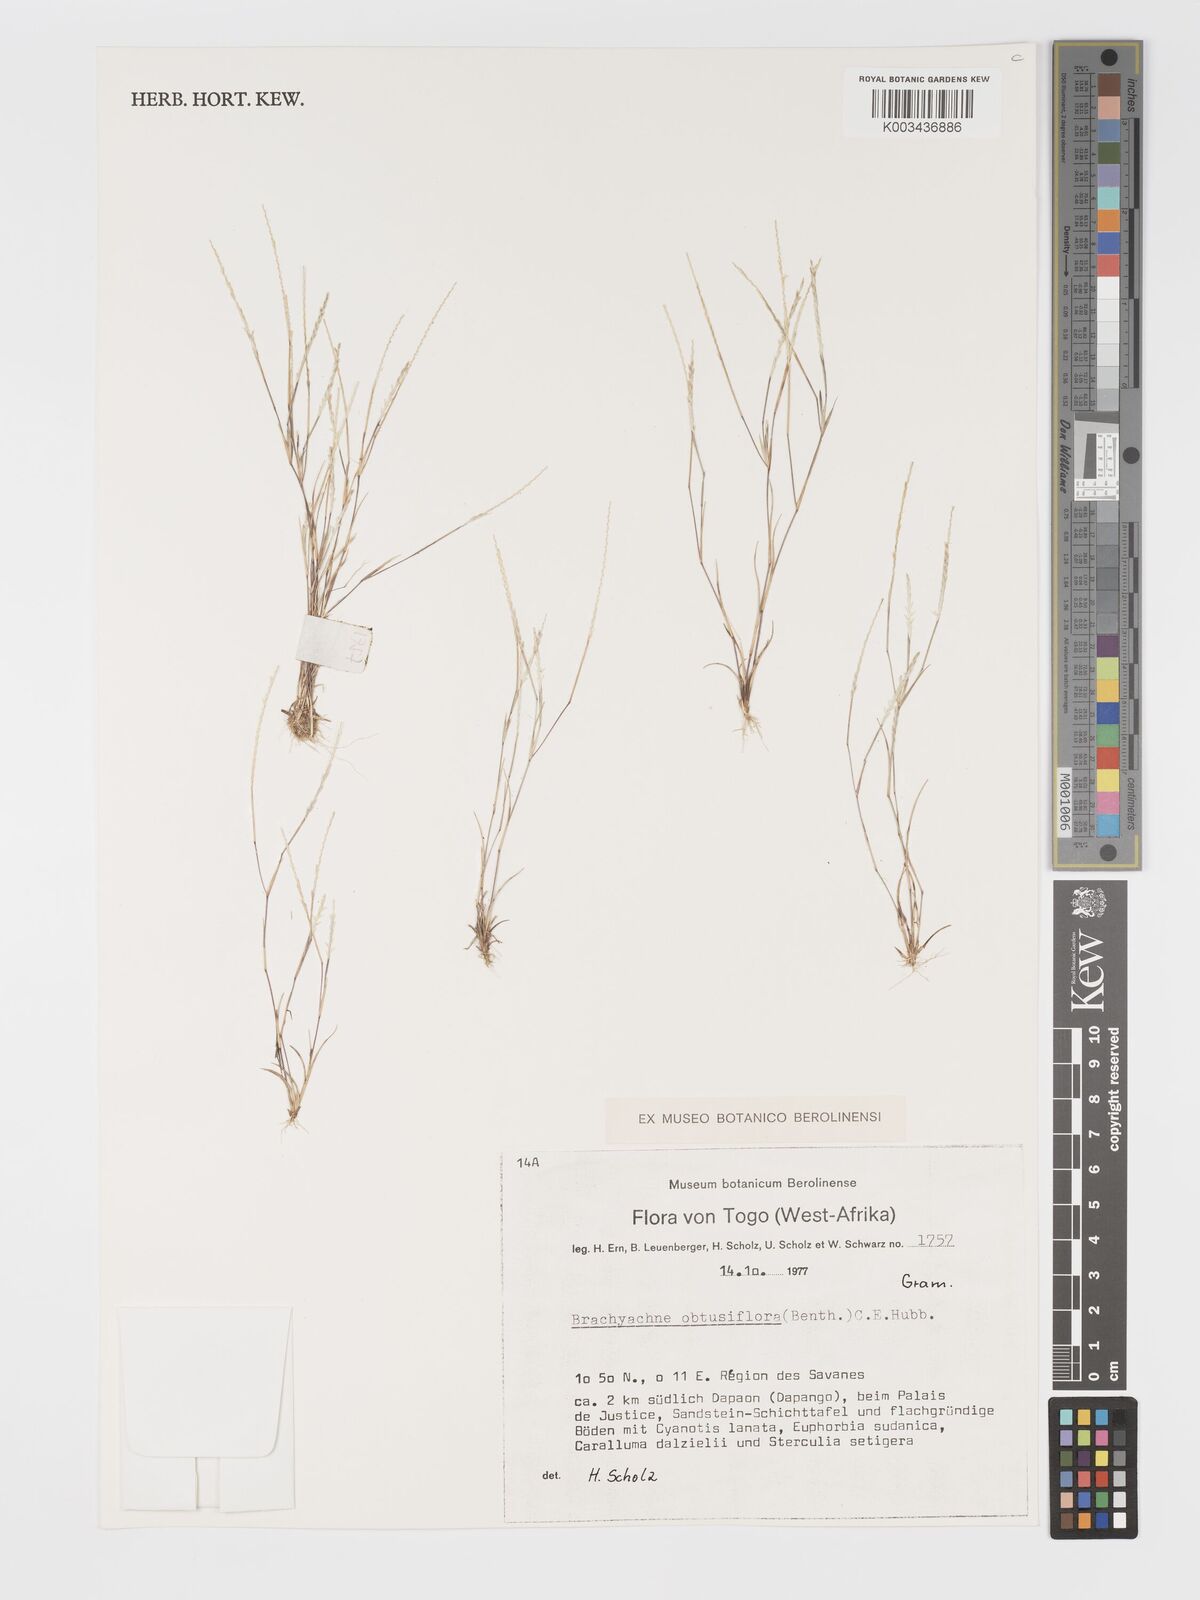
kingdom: Plantae
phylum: Tracheophyta
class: Liliopsida
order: Poales
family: Poaceae
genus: Micrachne
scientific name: Micrachne obtusiflora
